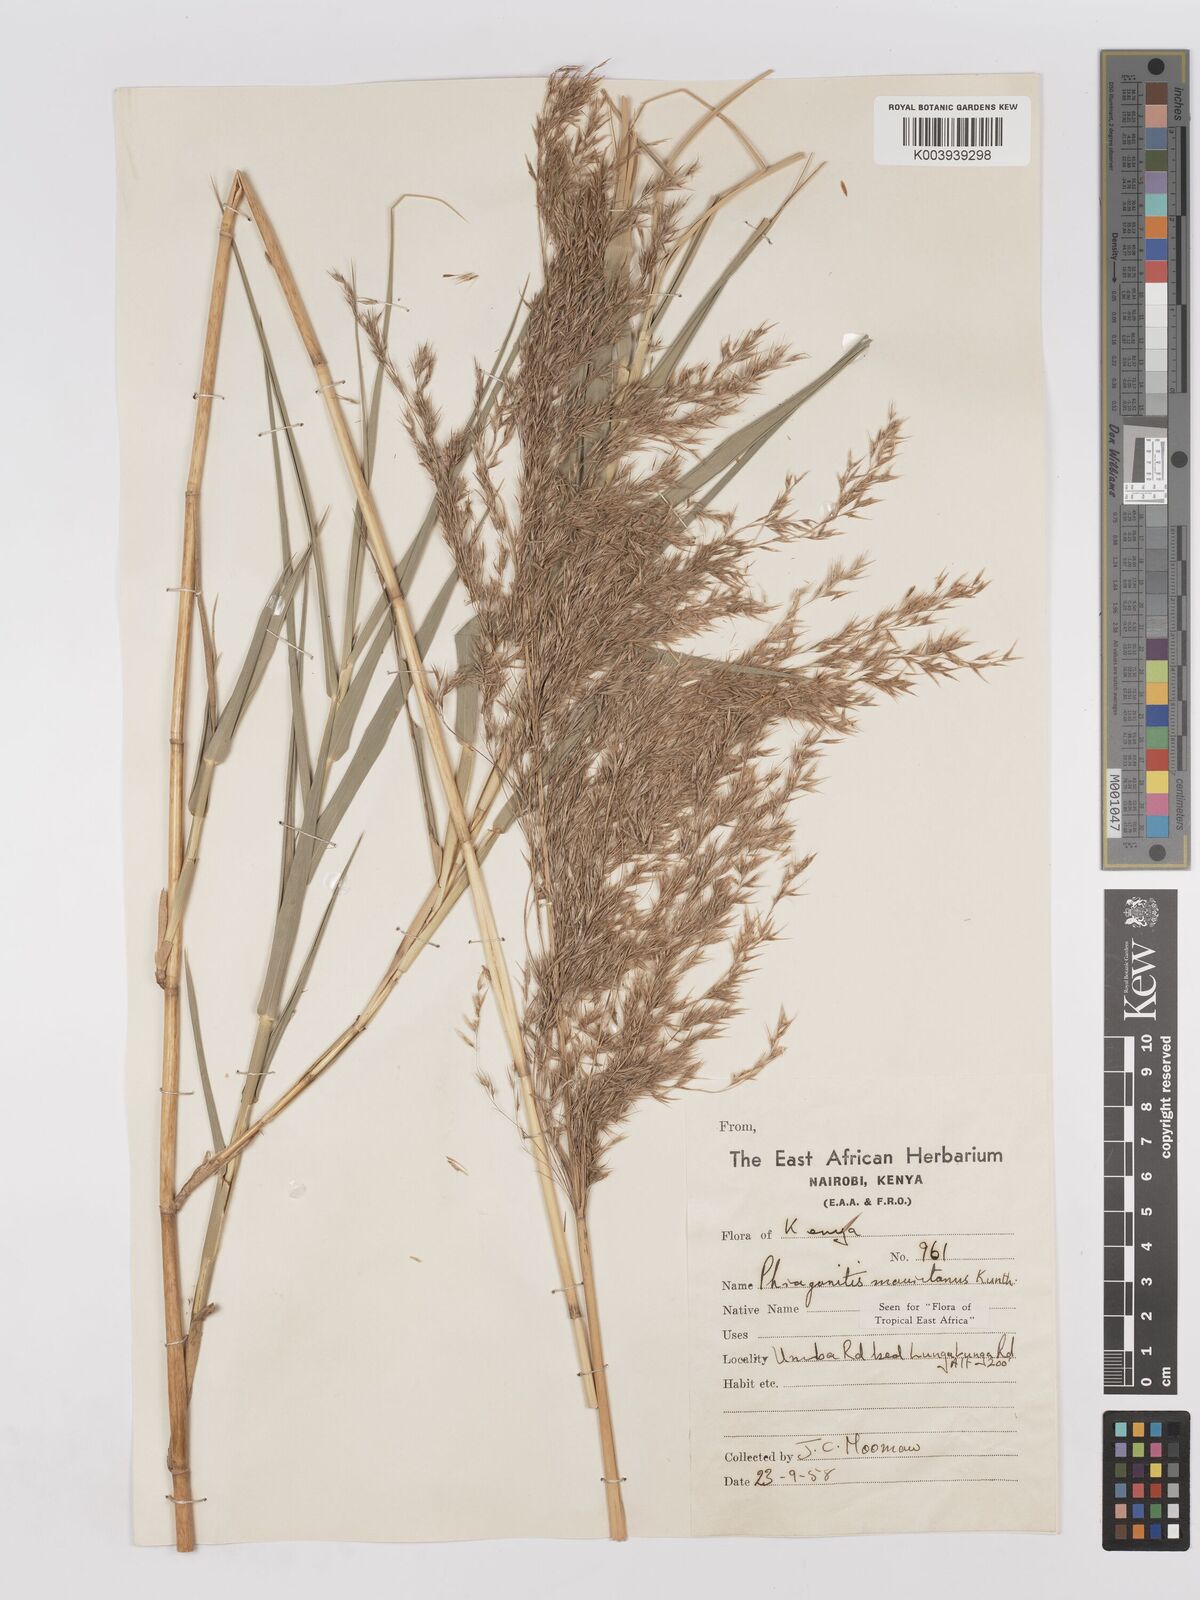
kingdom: Plantae
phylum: Tracheophyta
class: Liliopsida
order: Poales
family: Poaceae
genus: Phragmites
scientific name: Phragmites mauritianus
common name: Reed grass
